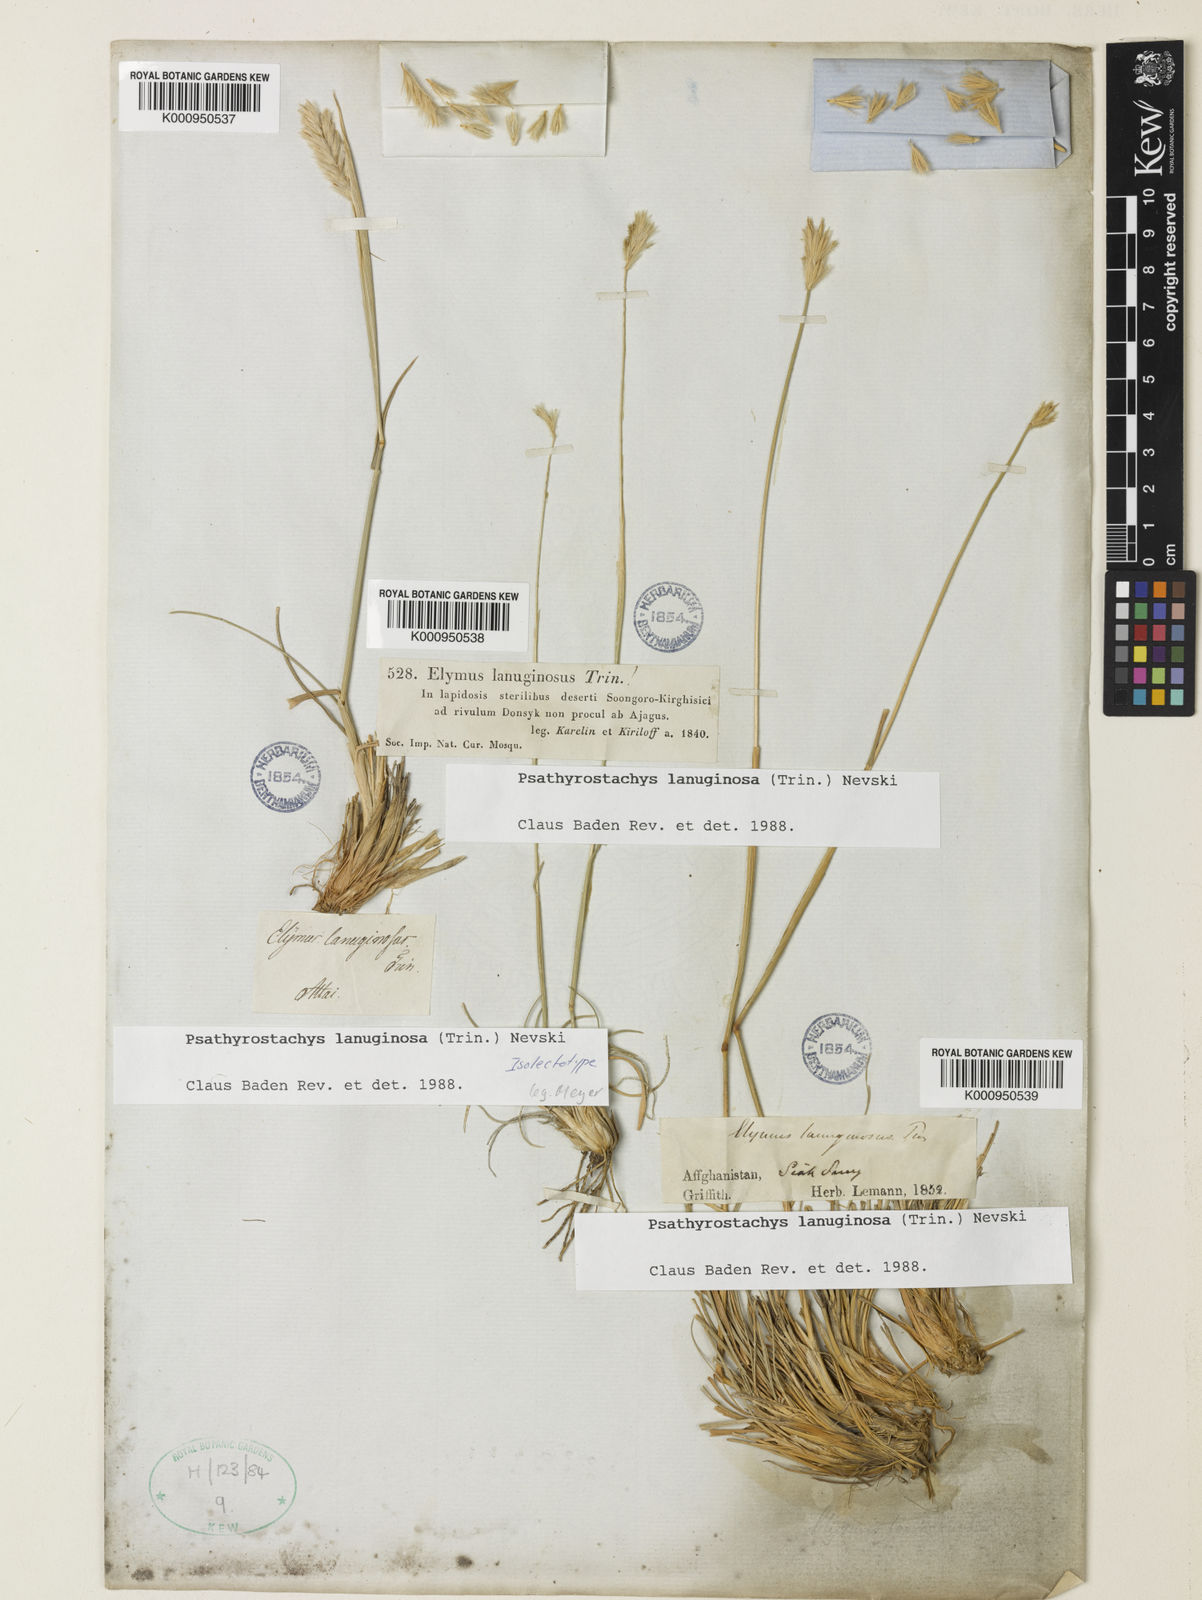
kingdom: Plantae
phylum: Tracheophyta
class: Liliopsida
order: Poales
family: Poaceae
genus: Psathyrostachys
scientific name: Psathyrostachys lanuginosa
